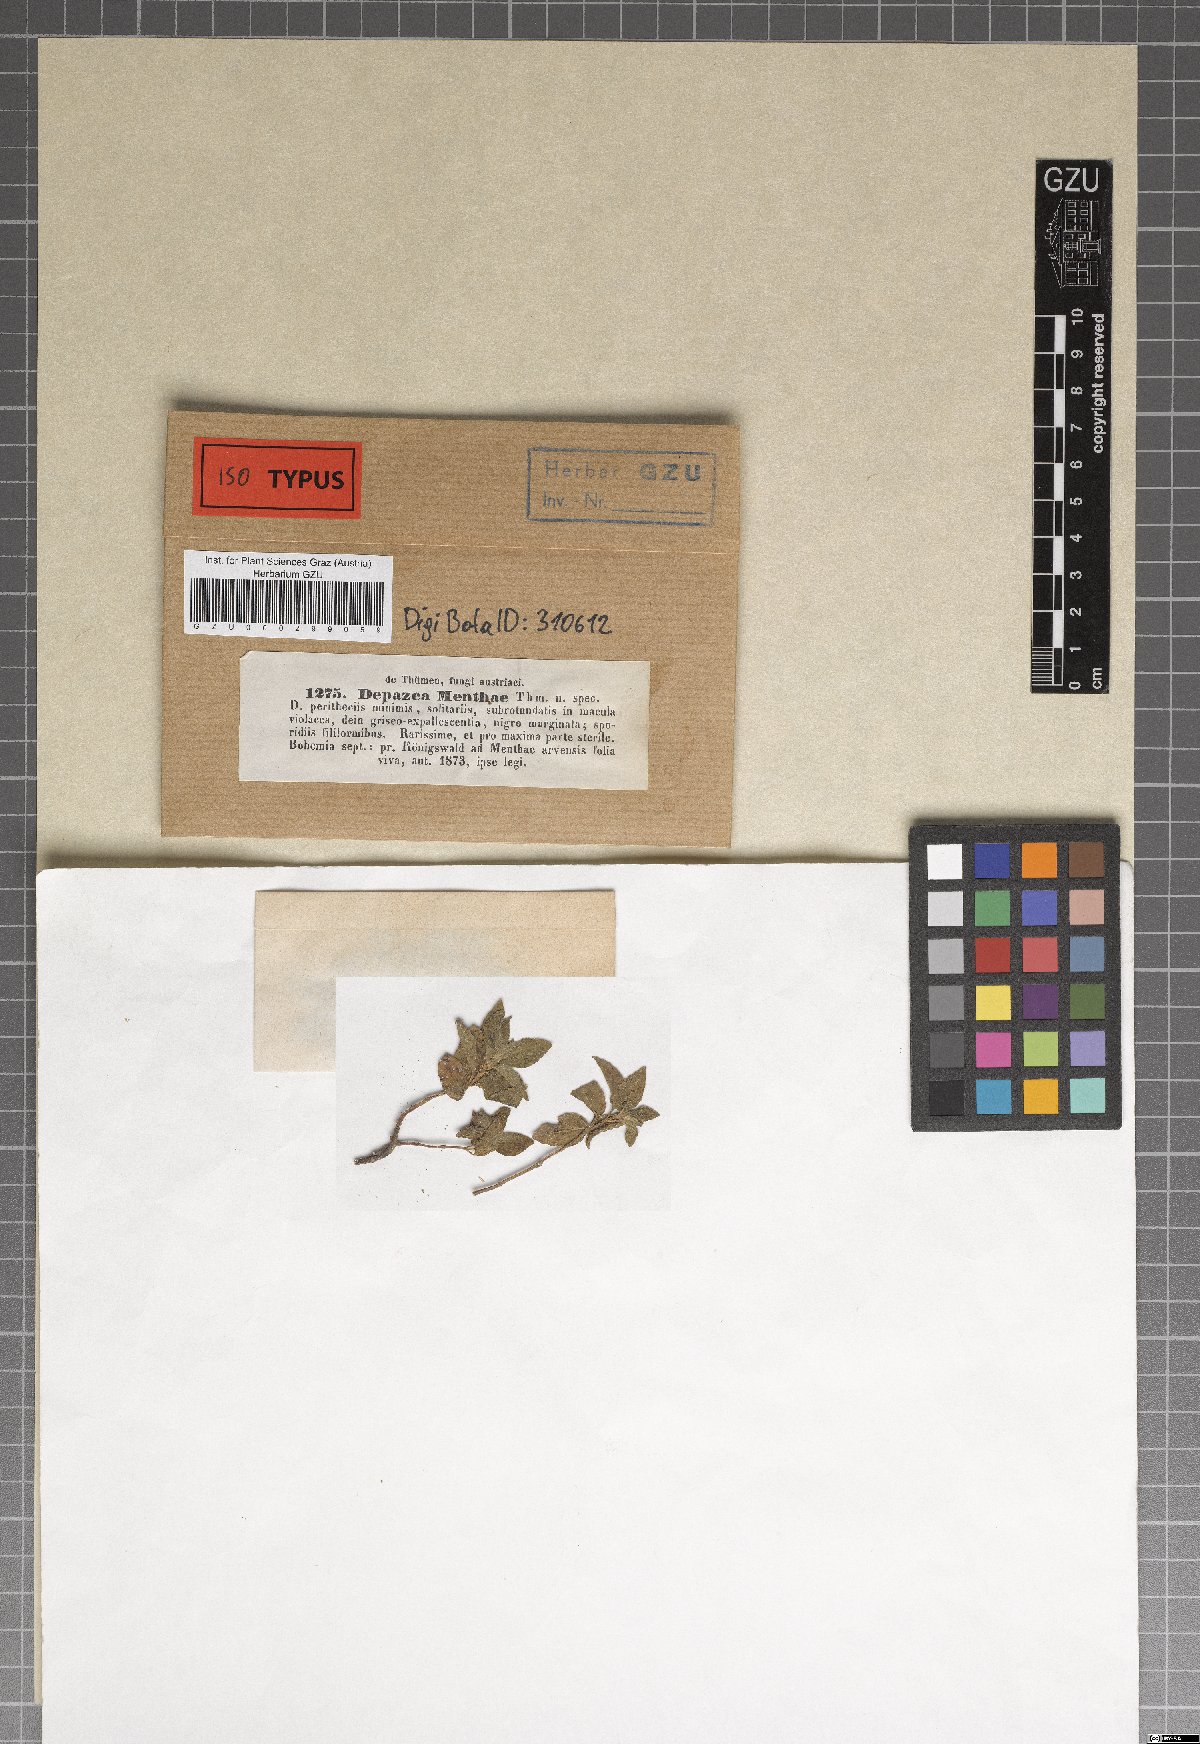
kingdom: Fungi
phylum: Ascomycota
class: Dothideomycetes
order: Mycosphaerellales
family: Mycosphaerellaceae
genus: Septoria
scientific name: Septoria menthae
